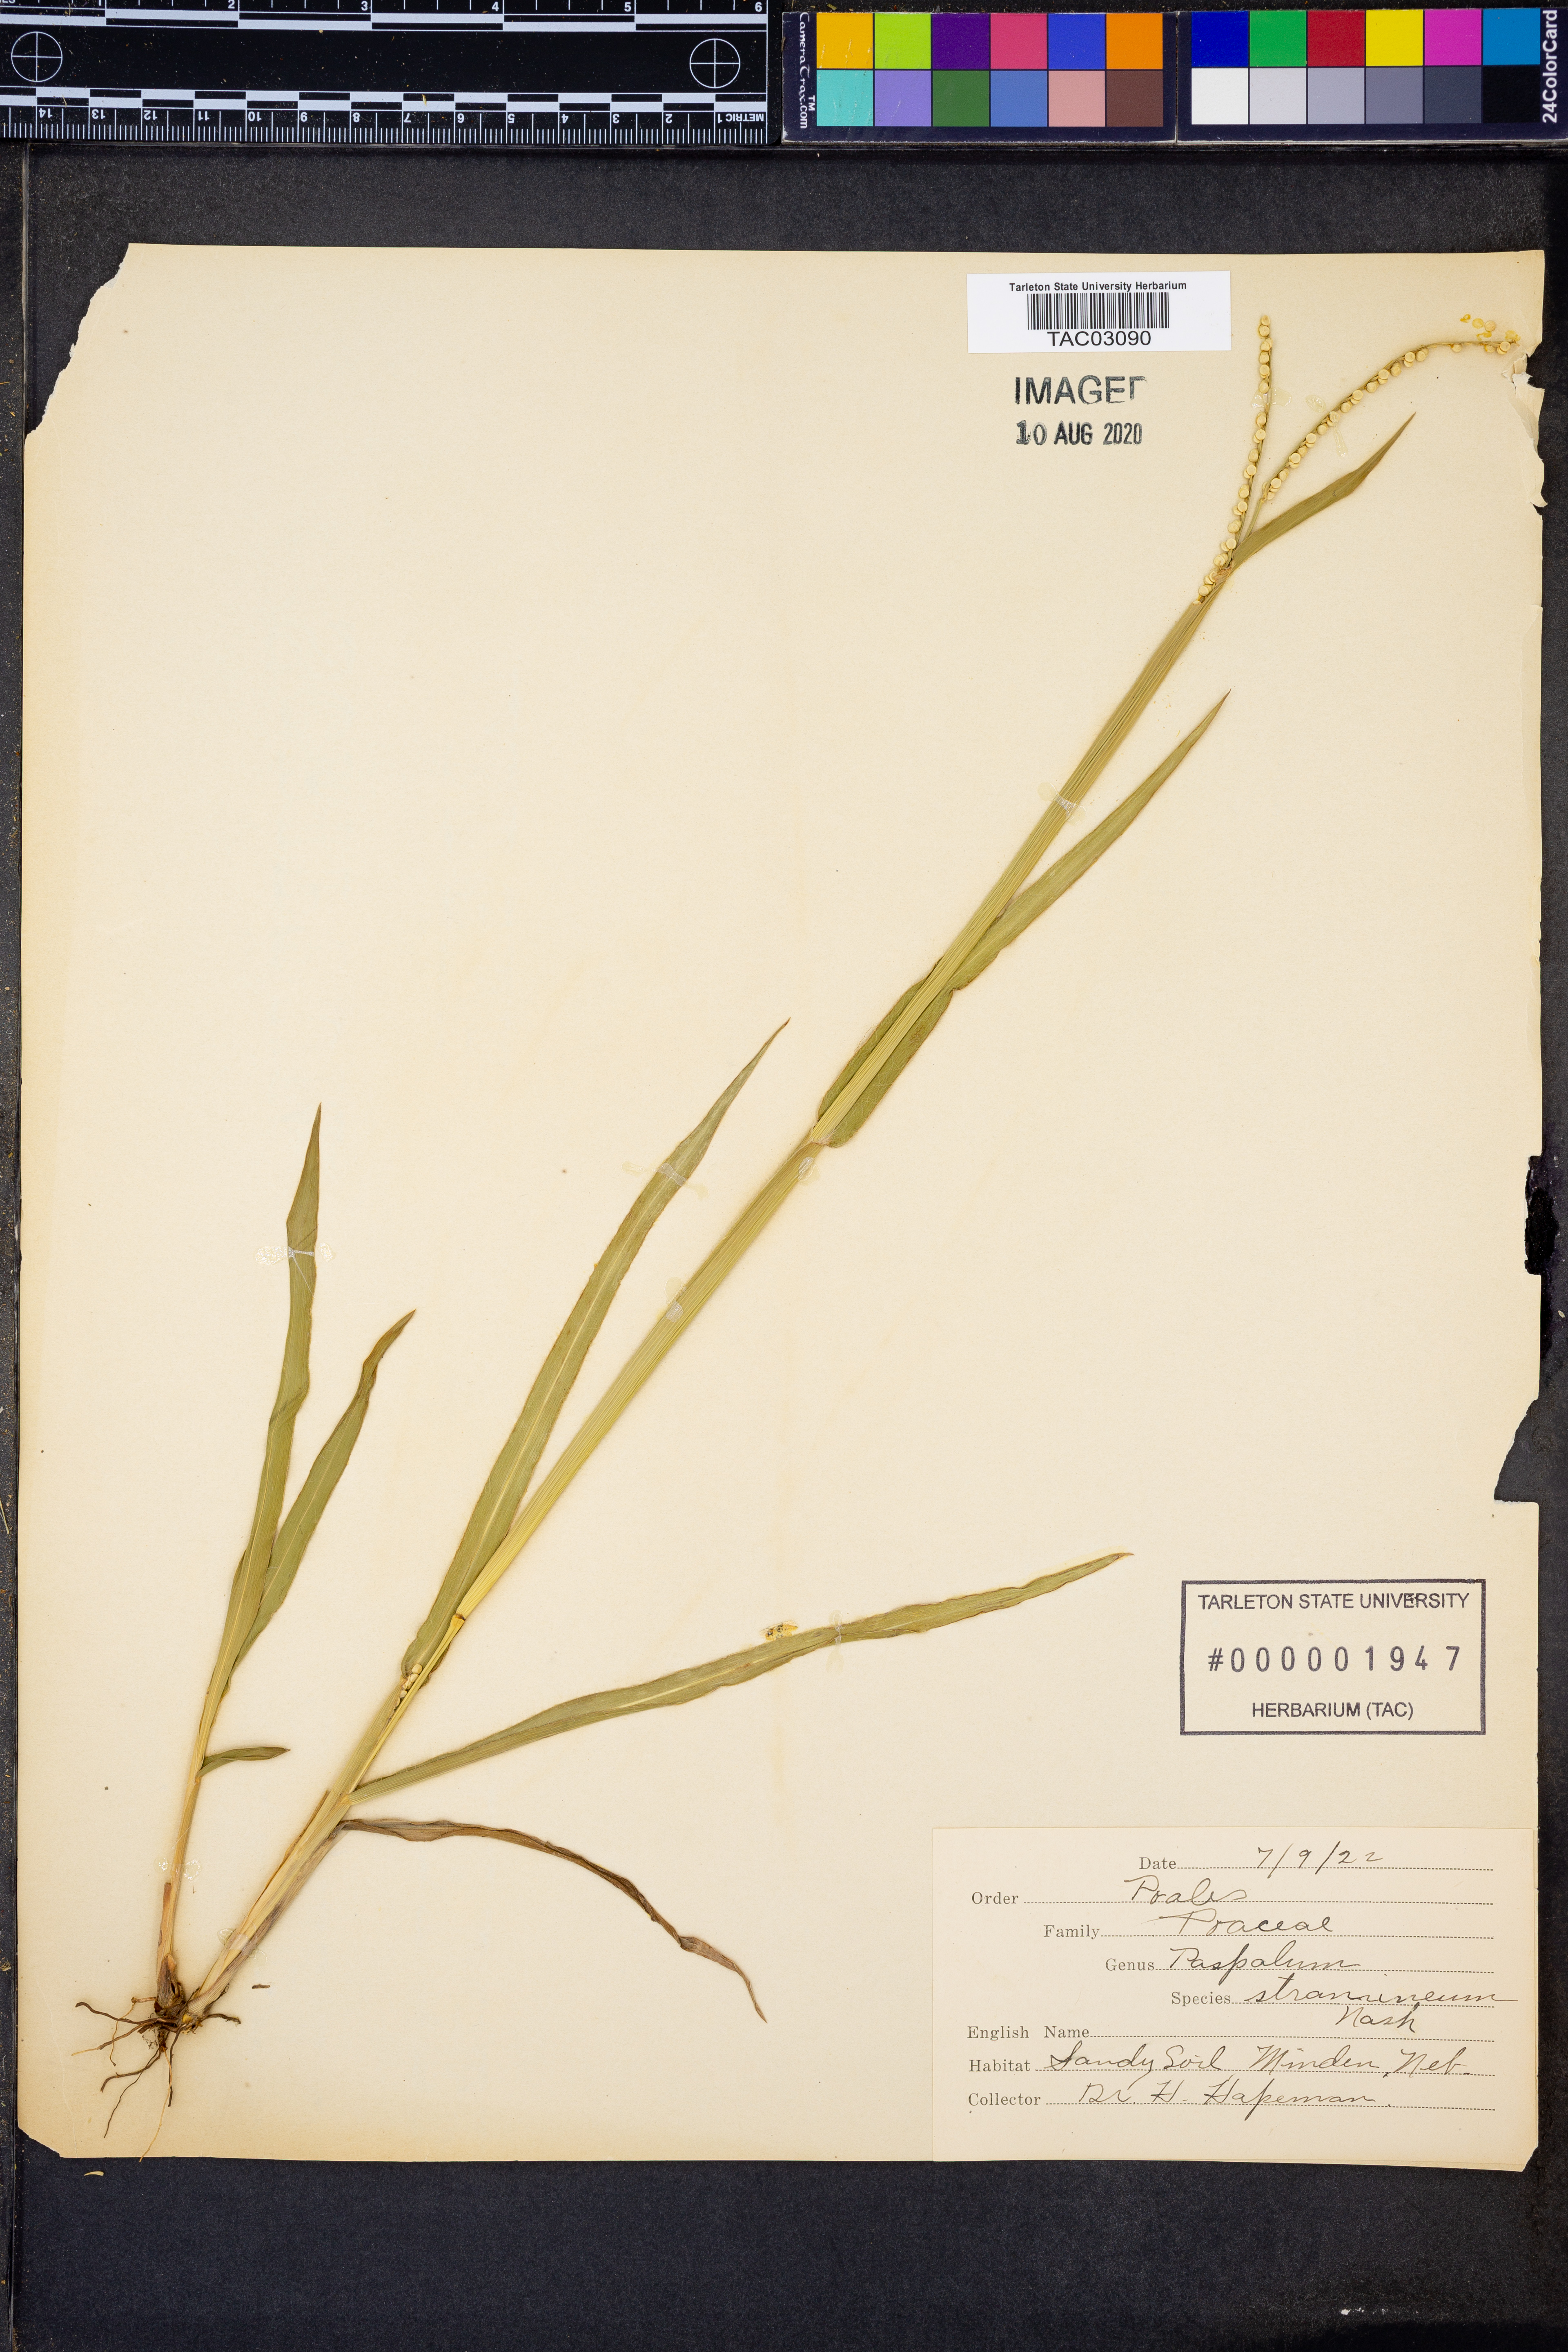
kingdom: Plantae
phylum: Tracheophyta
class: Liliopsida
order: Poales
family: Poaceae
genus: Paspalum
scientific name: Paspalum setaceum
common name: Slender paspalum
